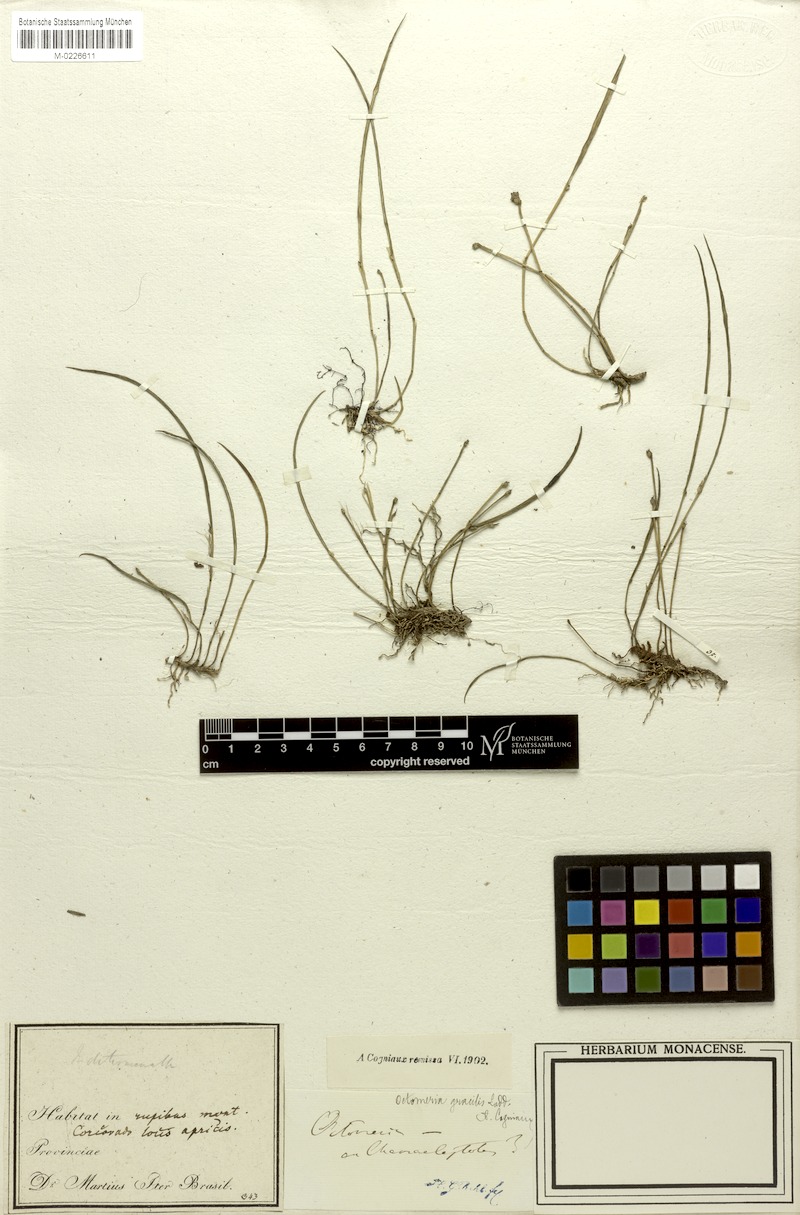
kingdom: Plantae
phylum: Tracheophyta
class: Liliopsida
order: Asparagales
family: Orchidaceae
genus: Octomeria
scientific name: Octomeria gracilis
